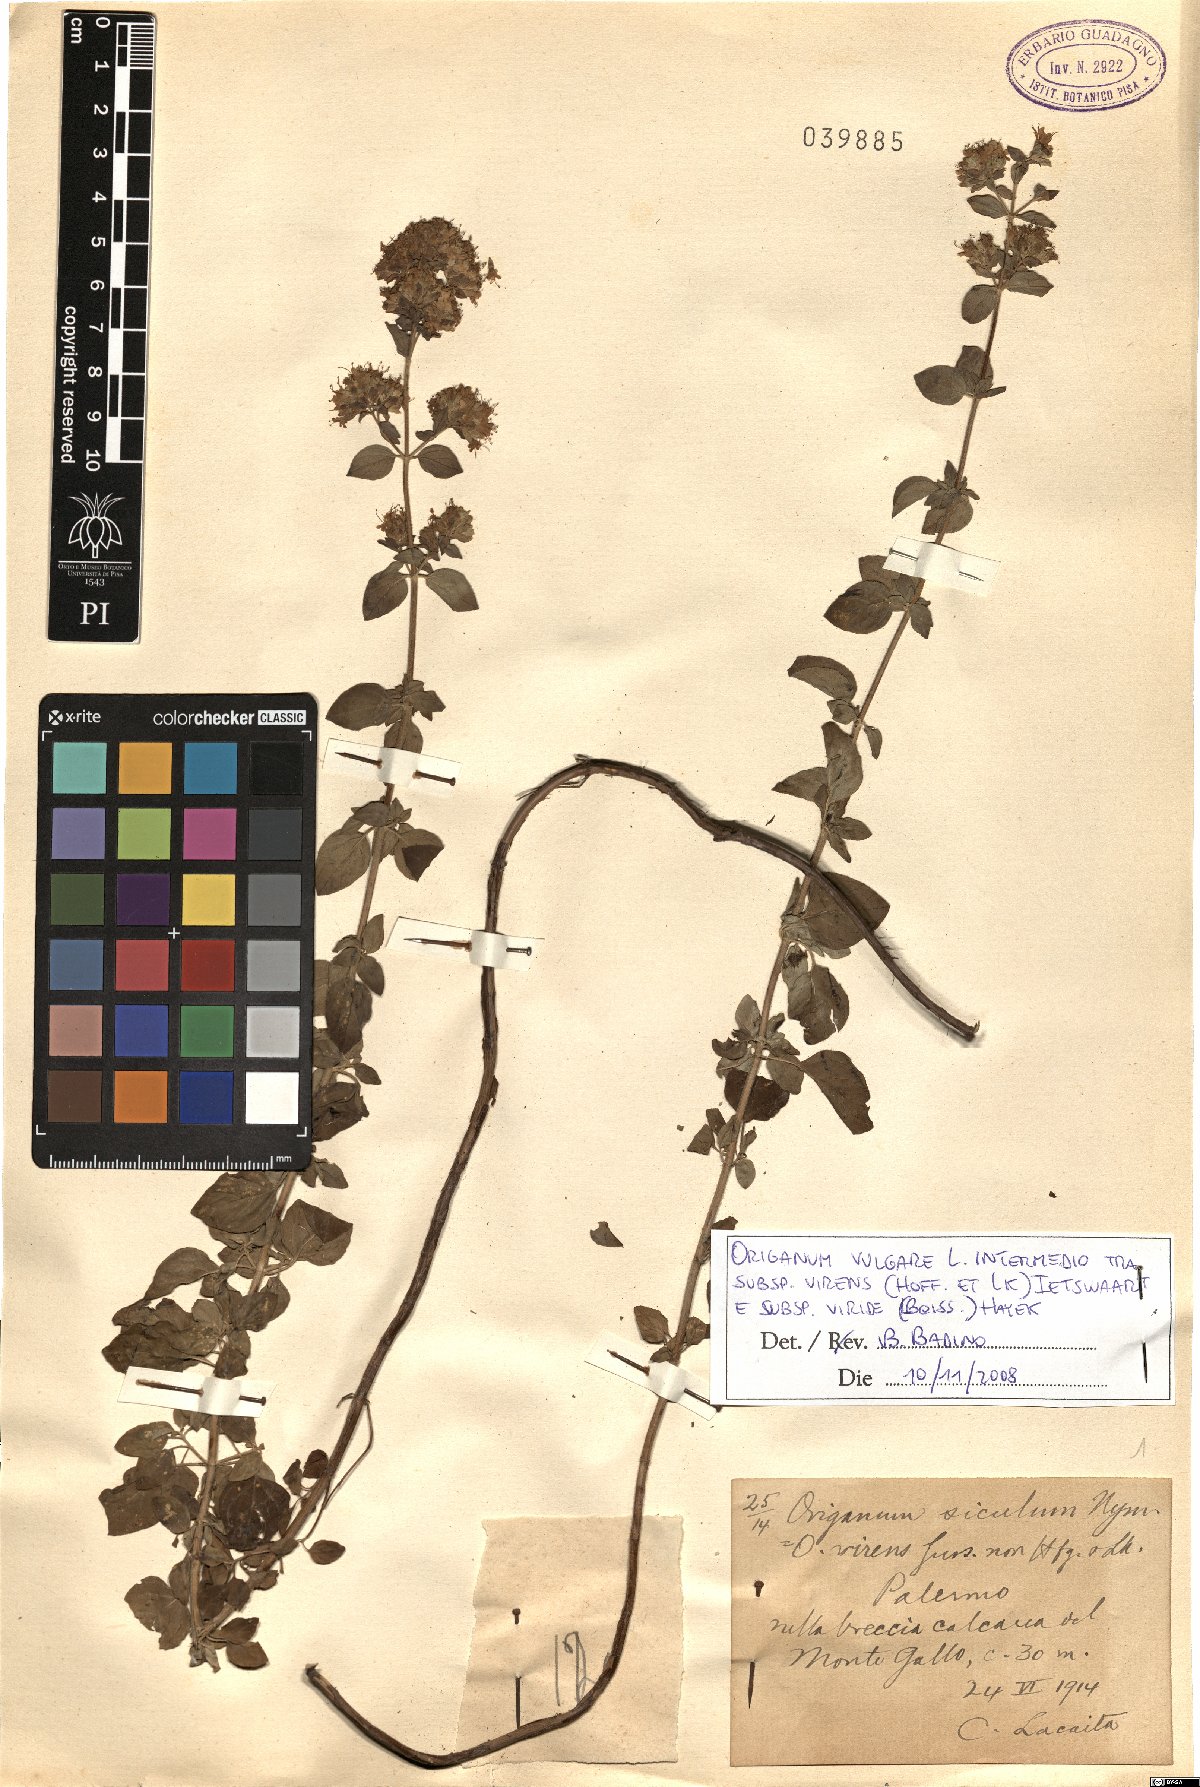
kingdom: Plantae
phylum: Tracheophyta
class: Magnoliopsida
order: Lamiales
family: Lamiaceae
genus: Origanum
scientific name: Origanum vulgare
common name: Wild marjoram
